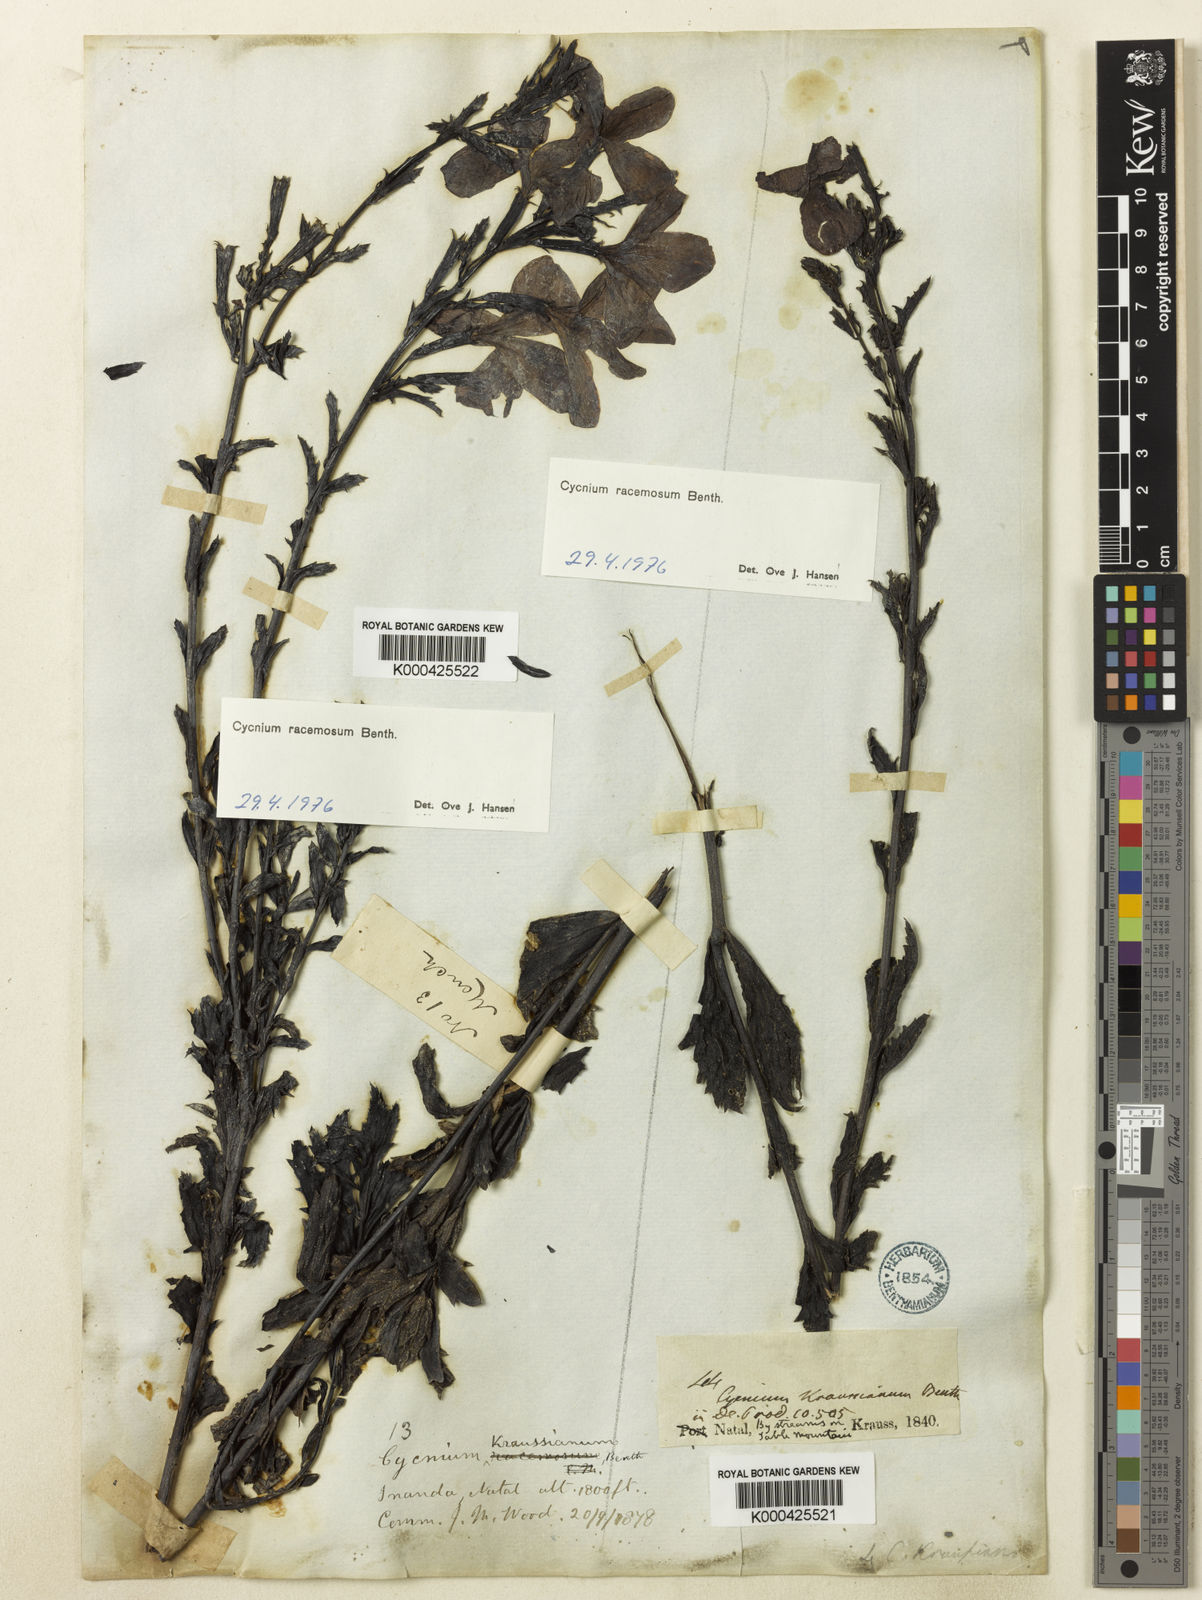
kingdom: Plantae
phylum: Tracheophyta
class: Magnoliopsida
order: Lamiales
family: Orobanchaceae
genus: Cycnium
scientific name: Cycnium racemosum
